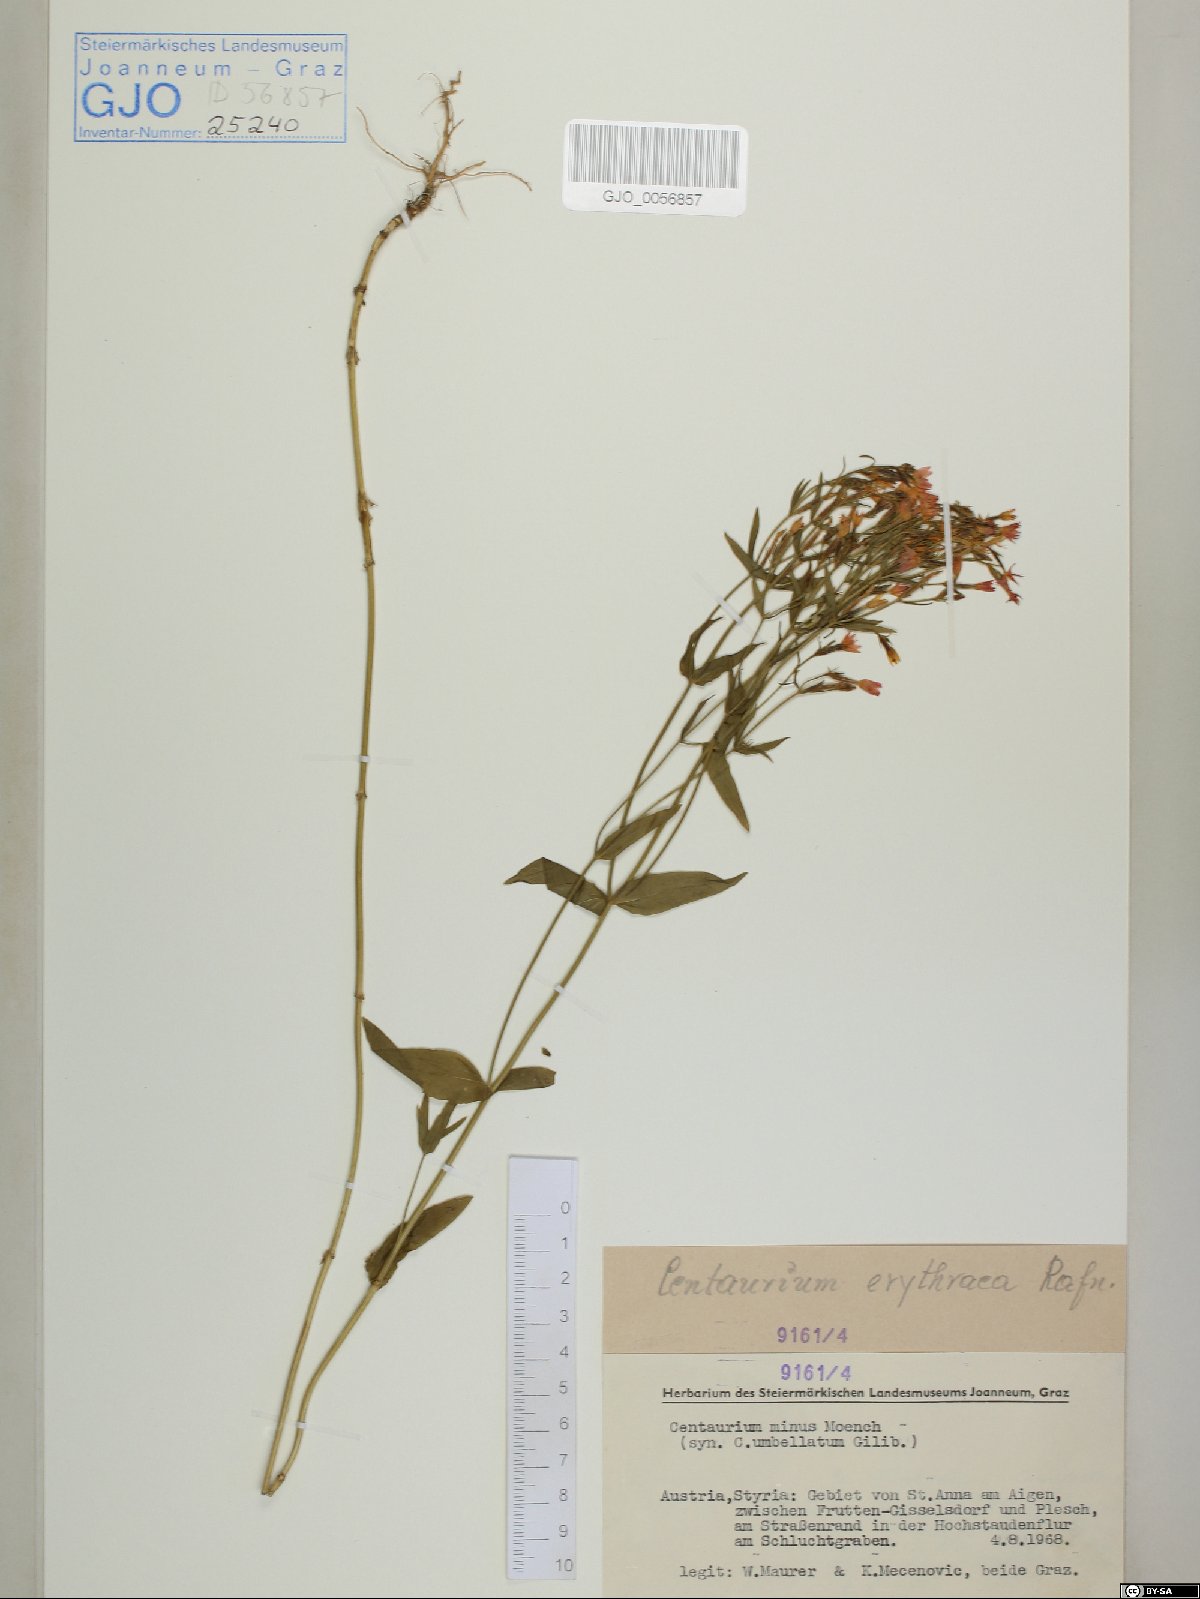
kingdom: Plantae
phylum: Tracheophyta
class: Magnoliopsida
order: Gentianales
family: Gentianaceae
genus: Centaurium
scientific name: Centaurium erythraea
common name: Common centaury
